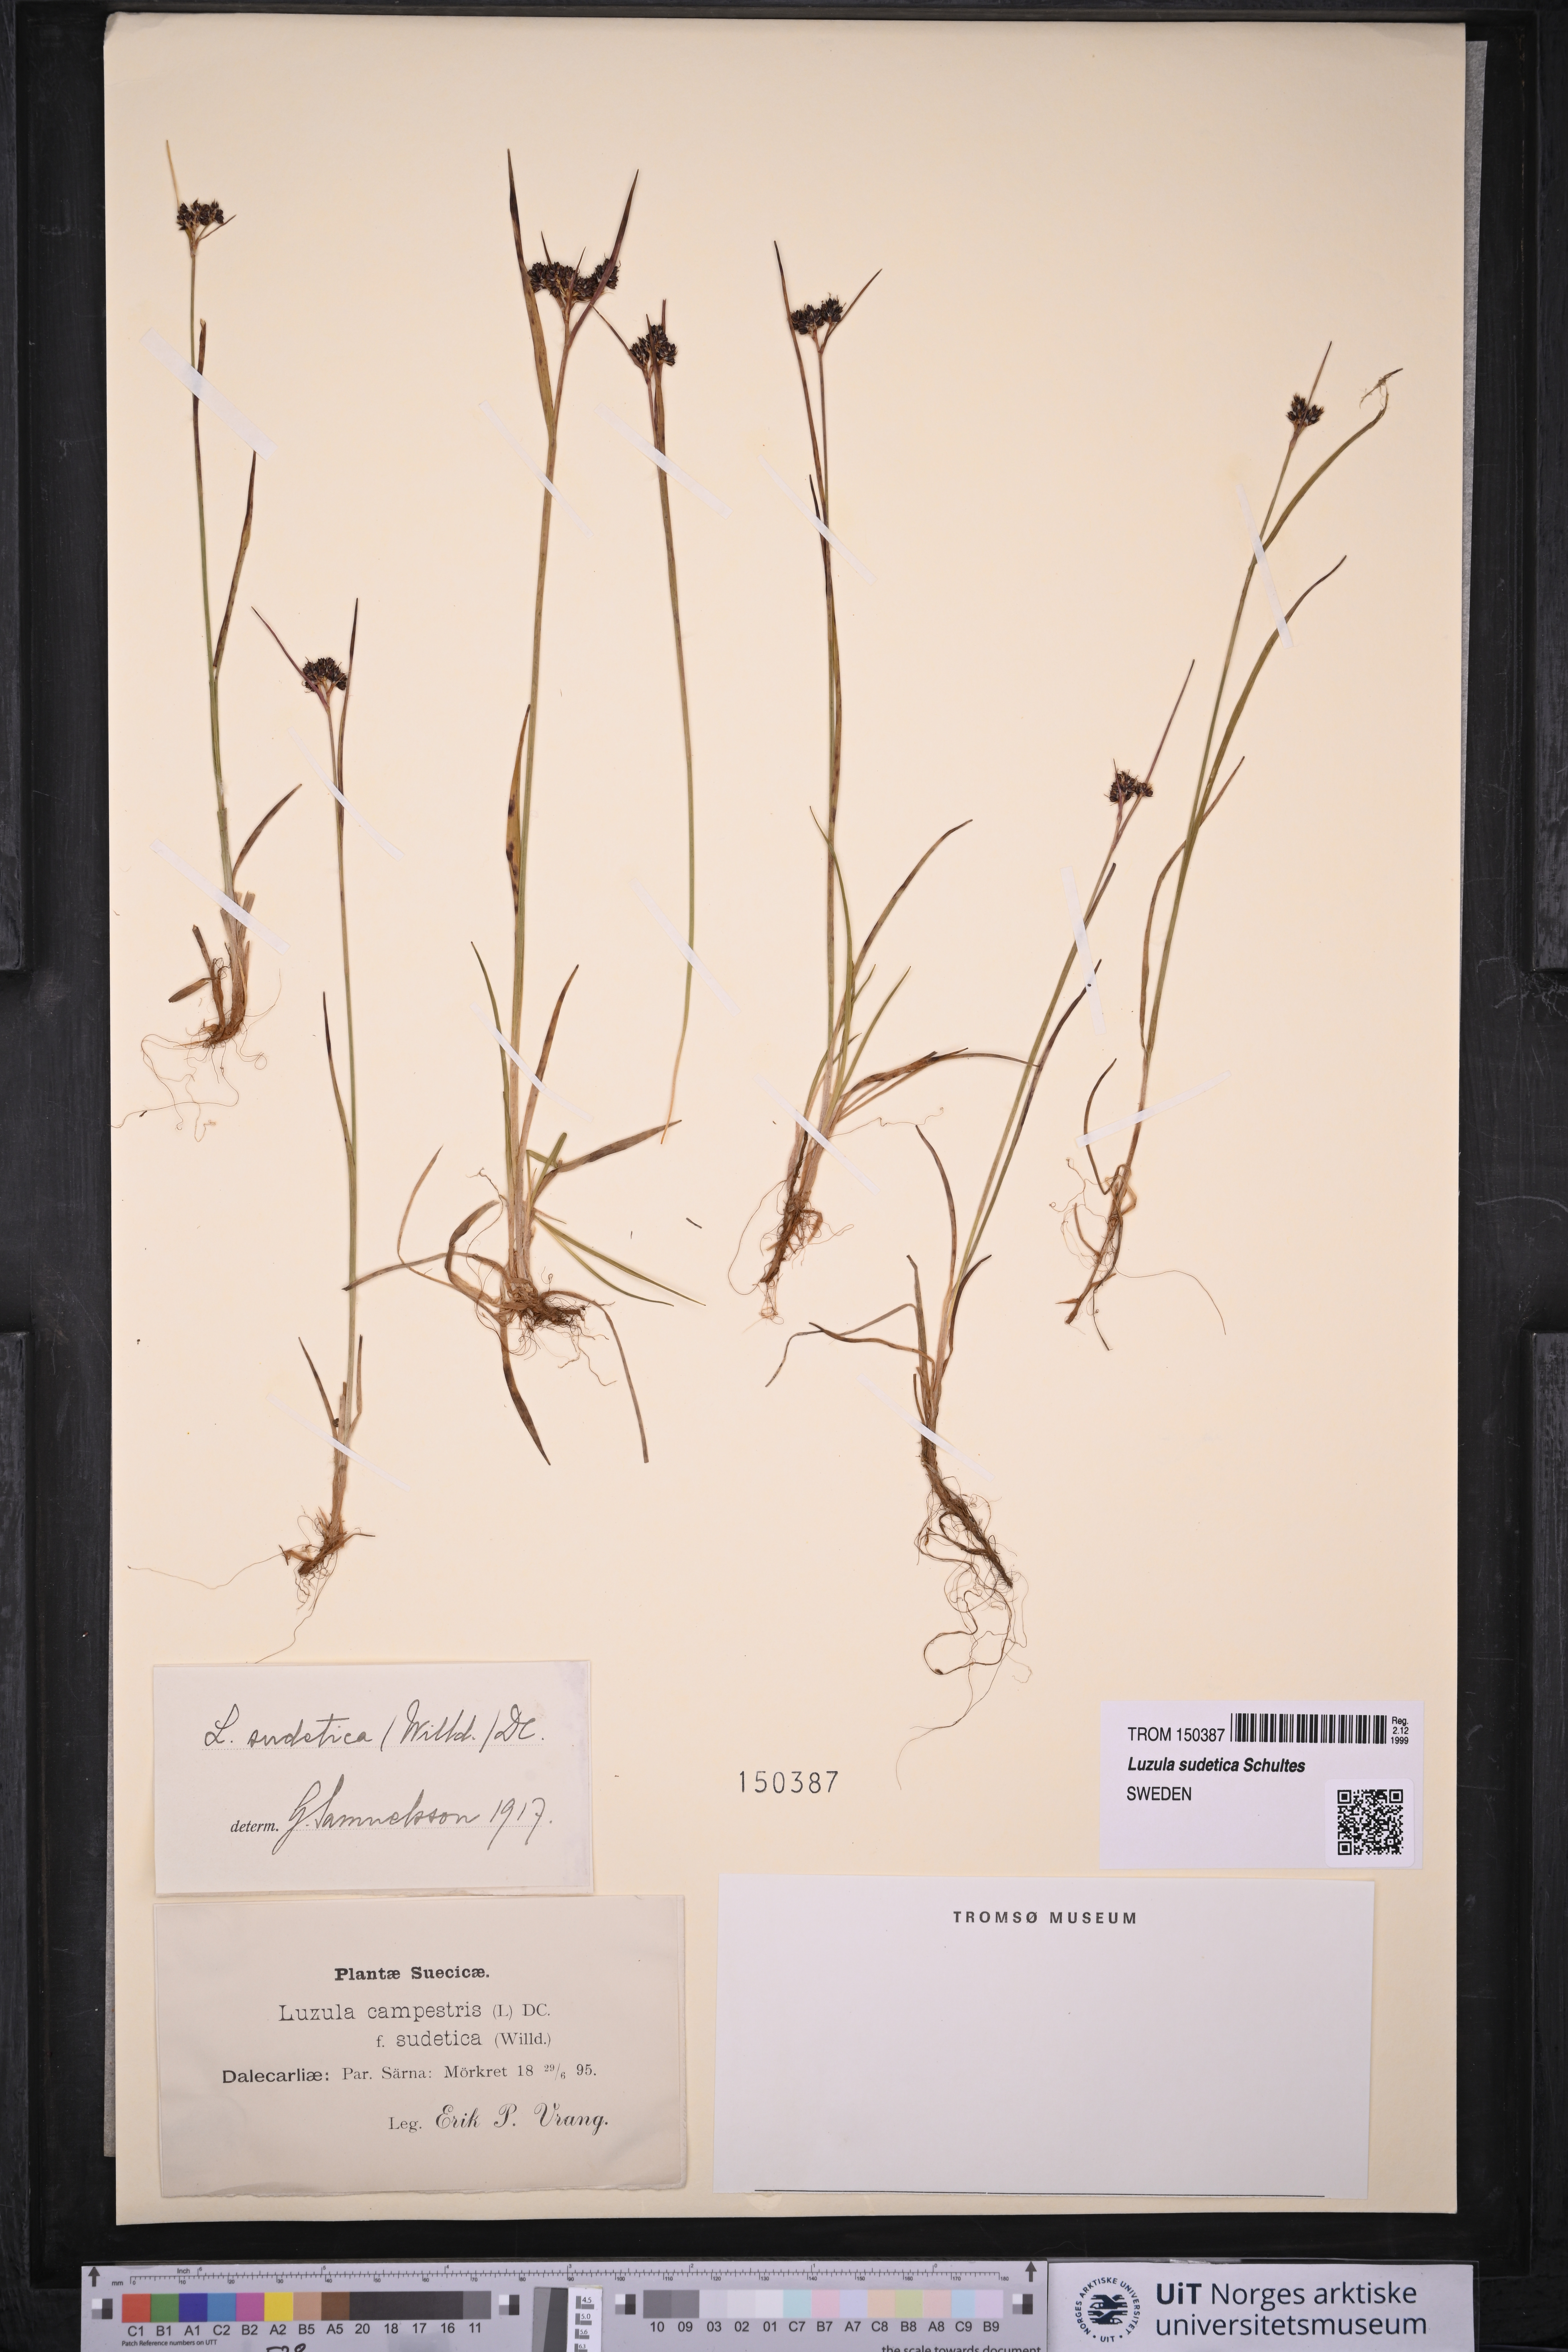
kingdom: Plantae
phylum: Tracheophyta
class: Liliopsida
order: Poales
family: Juncaceae
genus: Luzula
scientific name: Luzula sudetica
